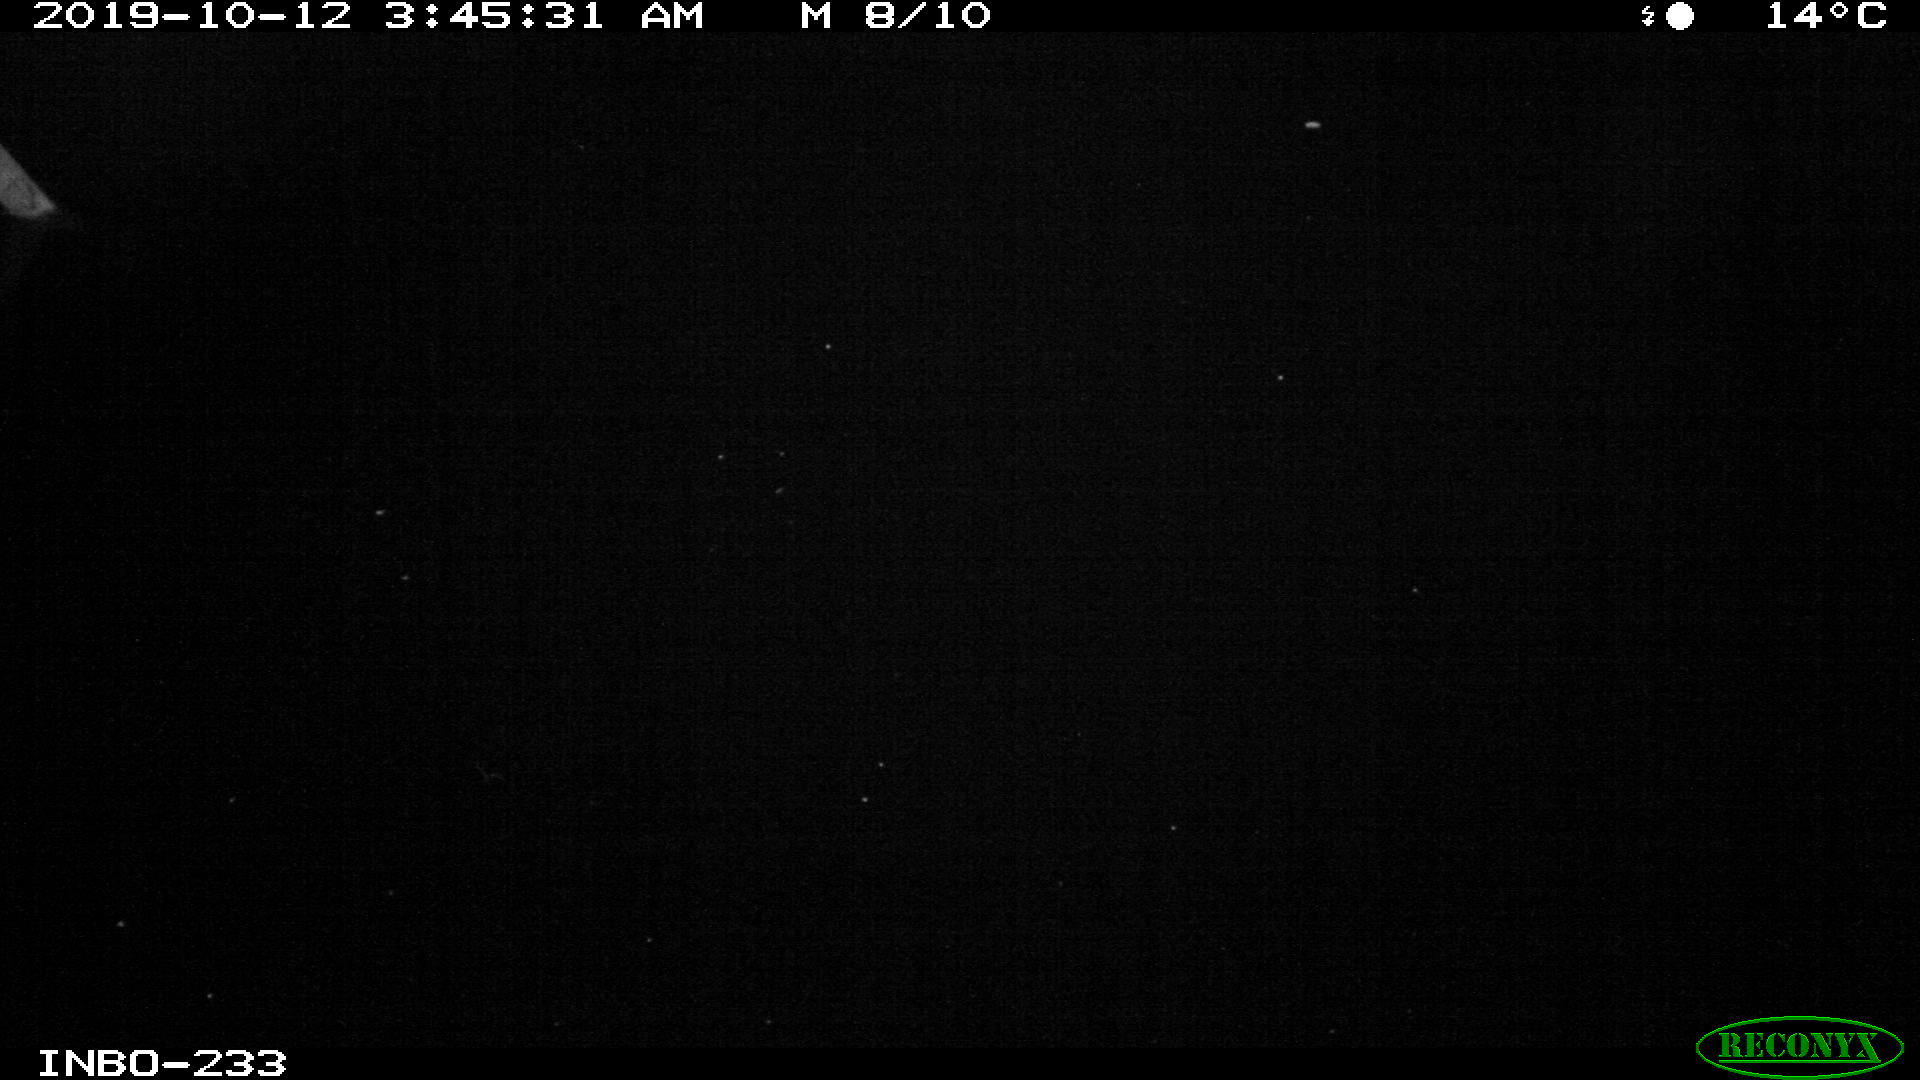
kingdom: Animalia
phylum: Chordata
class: Aves
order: Anseriformes
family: Anatidae
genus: Anas
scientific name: Anas platyrhynchos
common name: Mallard
